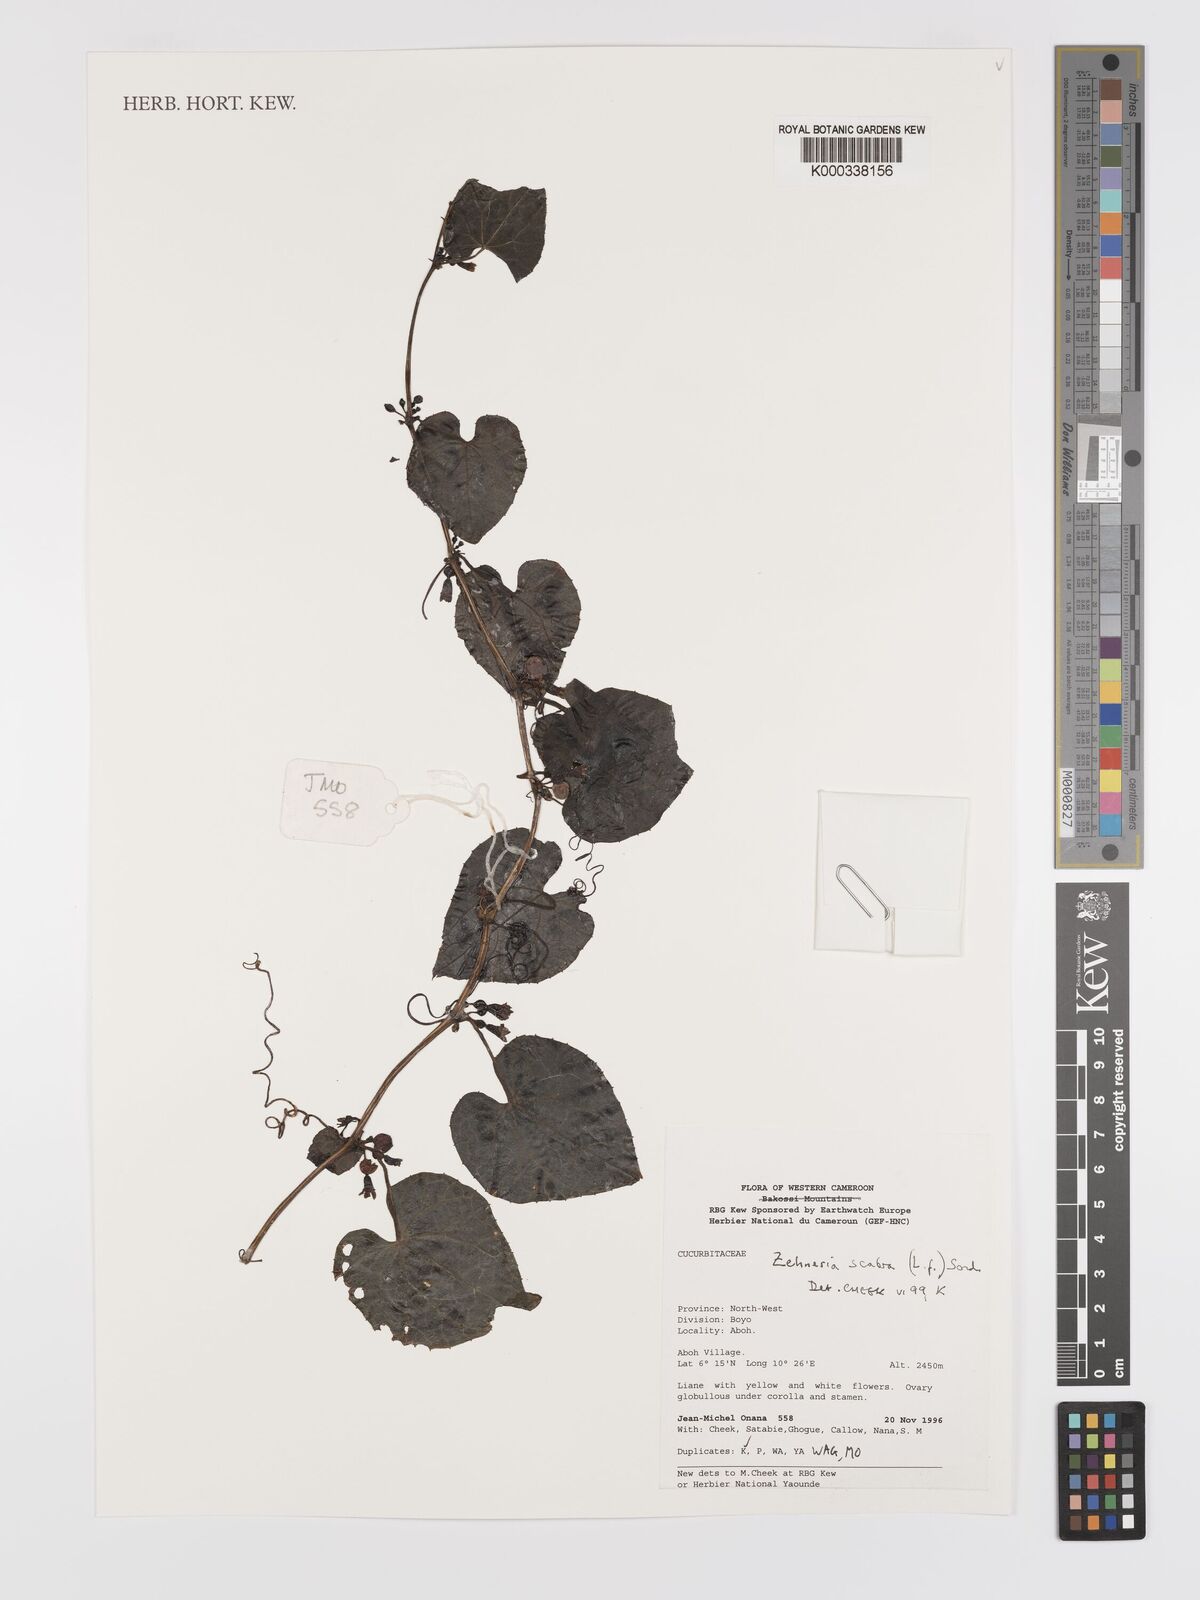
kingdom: Plantae
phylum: Tracheophyta
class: Magnoliopsida
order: Cucurbitales
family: Cucurbitaceae
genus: Zehneria
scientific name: Zehneria scabra
